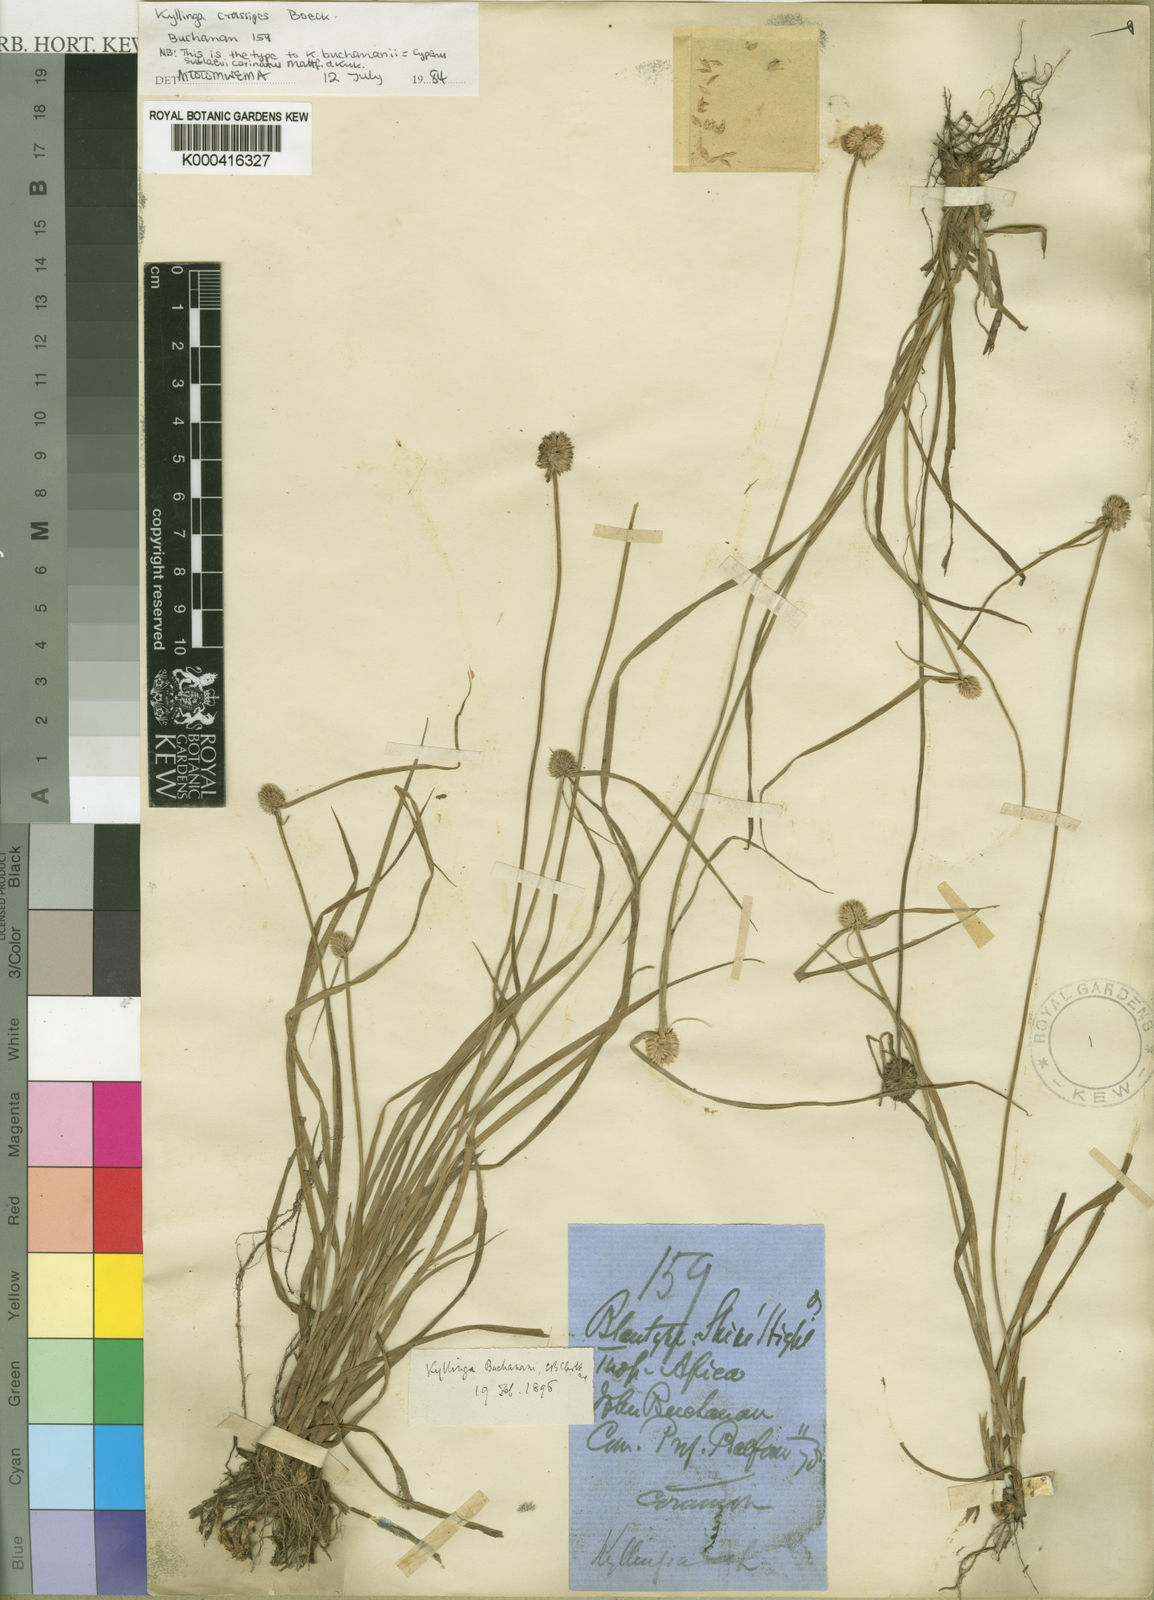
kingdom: Plantae
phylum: Tracheophyta
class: Liliopsida
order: Poales
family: Cyperaceae
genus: Cyperus
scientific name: Cyperus sublaevicarinatus
